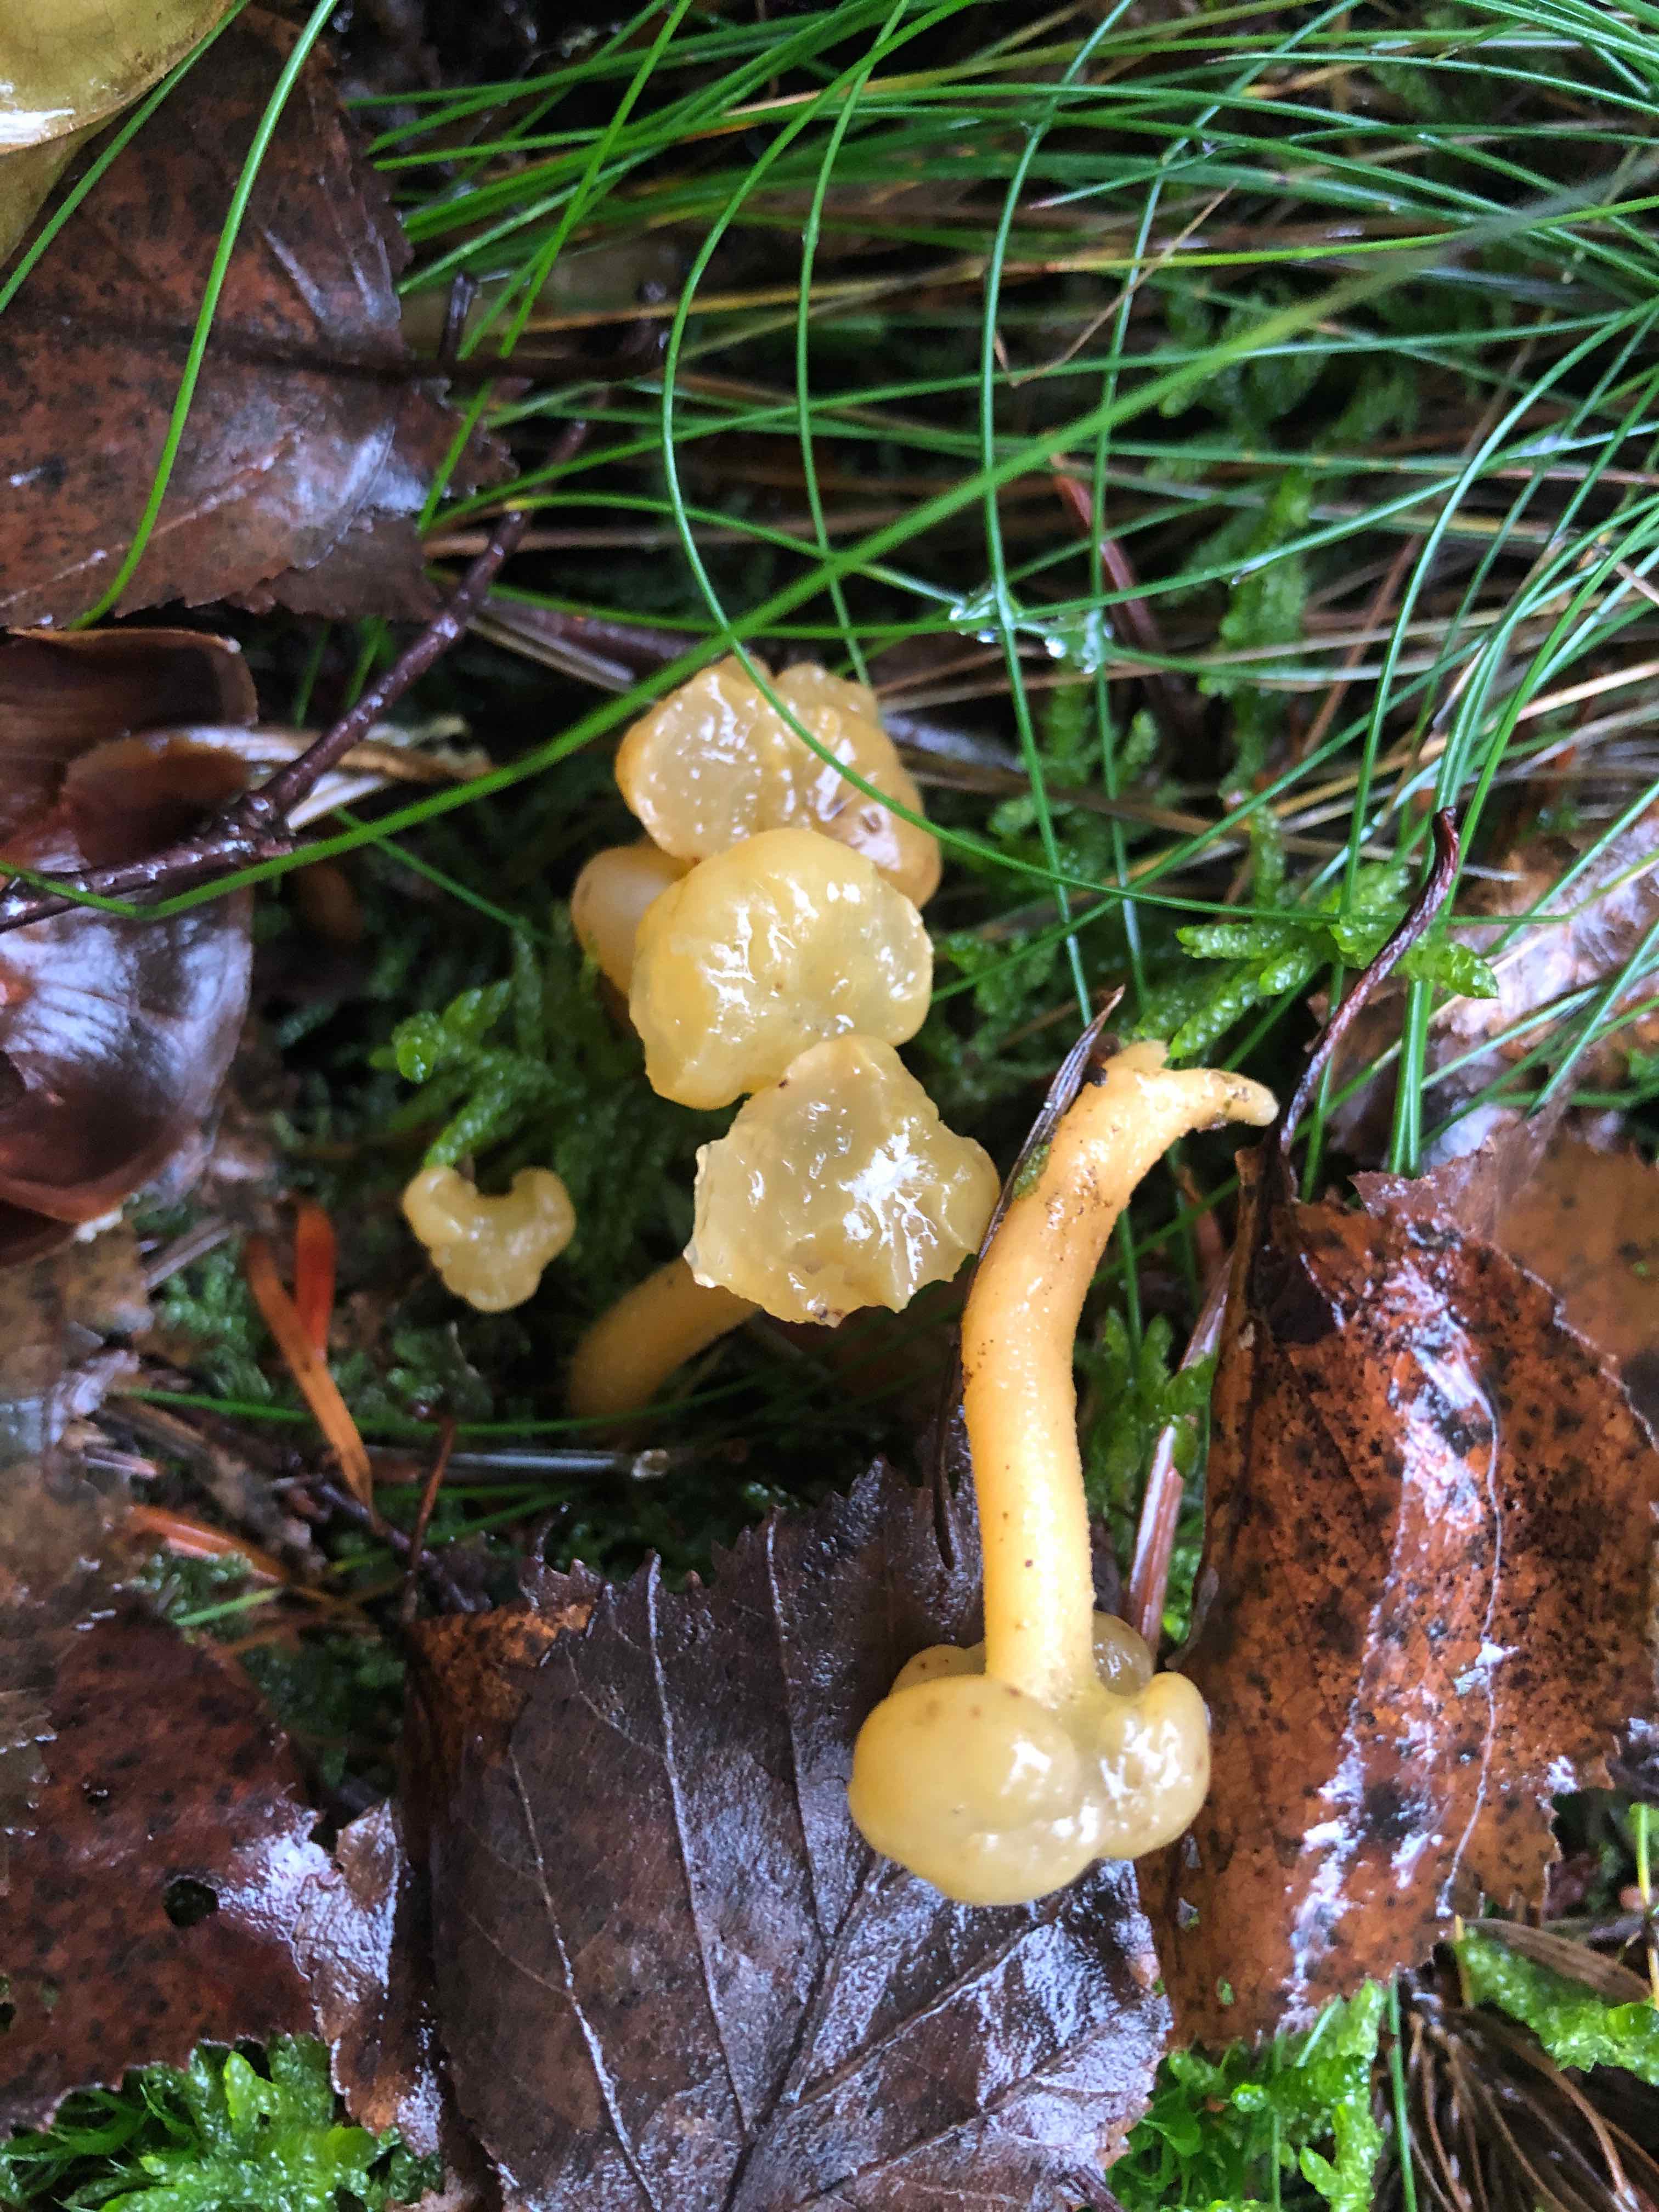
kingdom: Fungi
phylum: Ascomycota
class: Leotiomycetes
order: Leotiales
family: Leotiaceae
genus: Leotia
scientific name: Leotia lubrica
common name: ravsvamp
